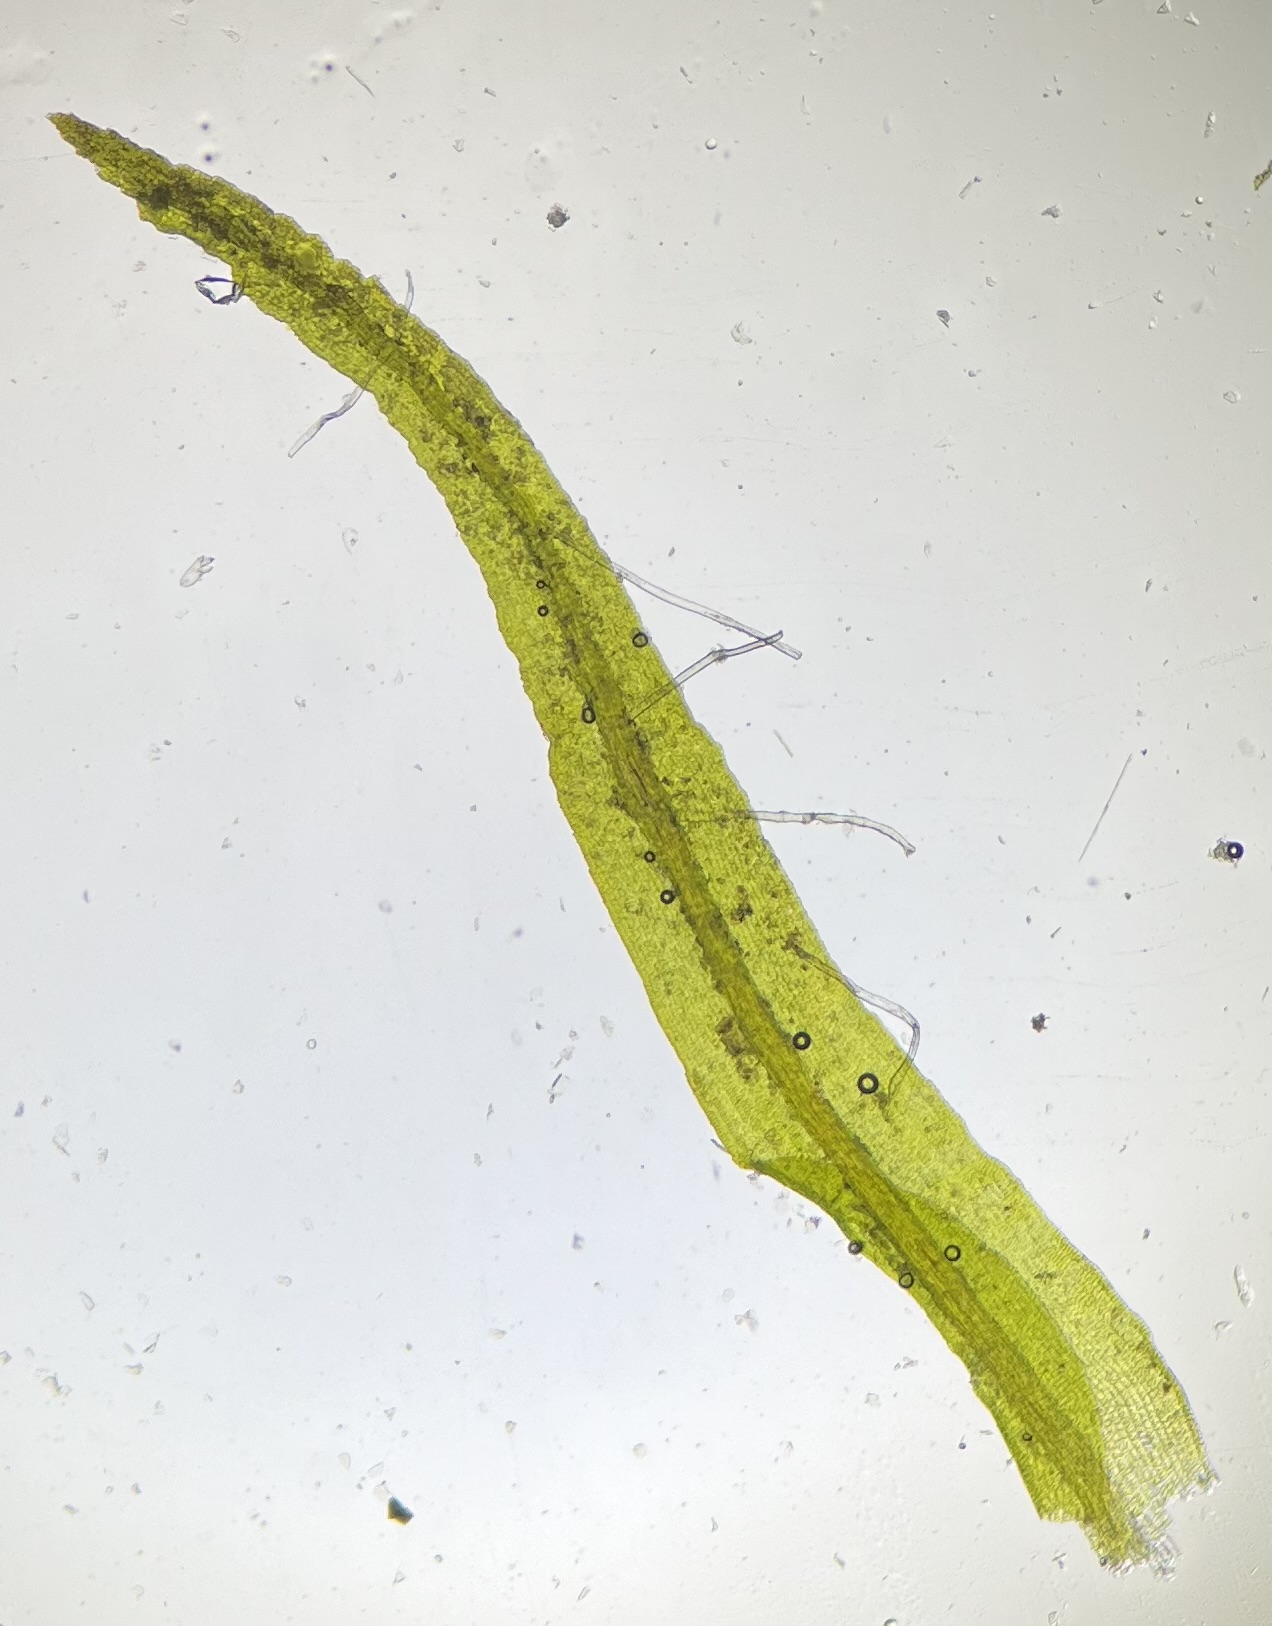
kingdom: Plantae
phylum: Bryophyta
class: Bryopsida
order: Pottiales
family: Pottiaceae
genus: Husnotiella
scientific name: Husnotiella sinuosa
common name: Bølget kalktuemos
